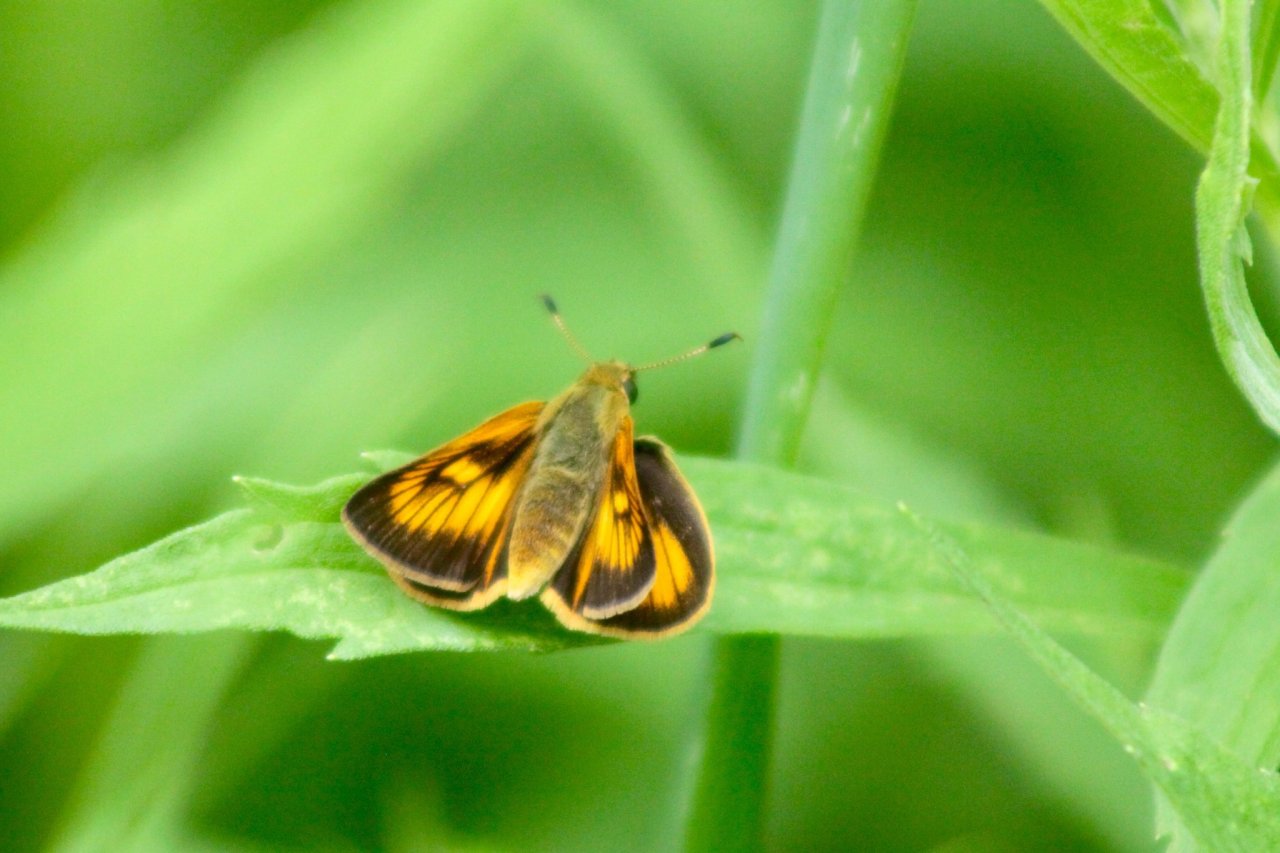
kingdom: Animalia
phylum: Arthropoda
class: Insecta
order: Lepidoptera
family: Hesperiidae
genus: Atrytone
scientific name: Atrytone delaware
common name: Delaware Skipper
